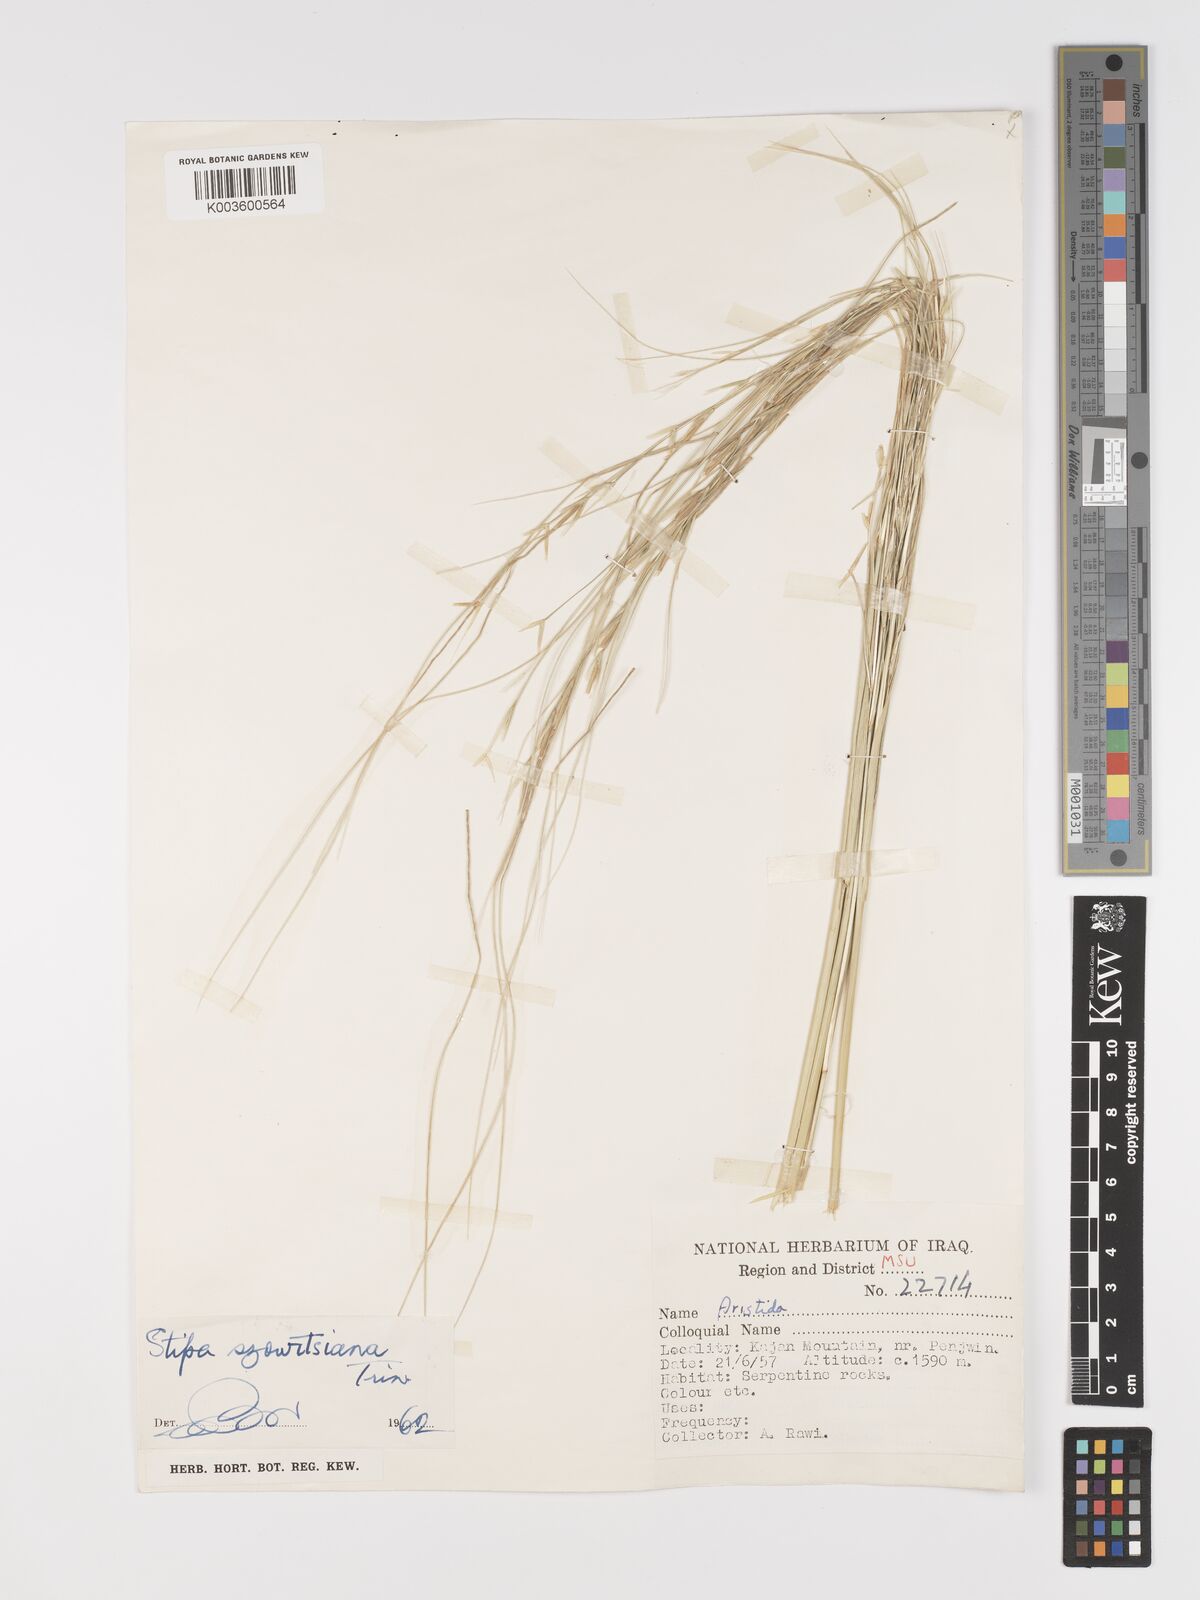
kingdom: Plantae
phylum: Tracheophyta
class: Liliopsida
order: Poales
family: Poaceae
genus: Stipa
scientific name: Stipa barbata
